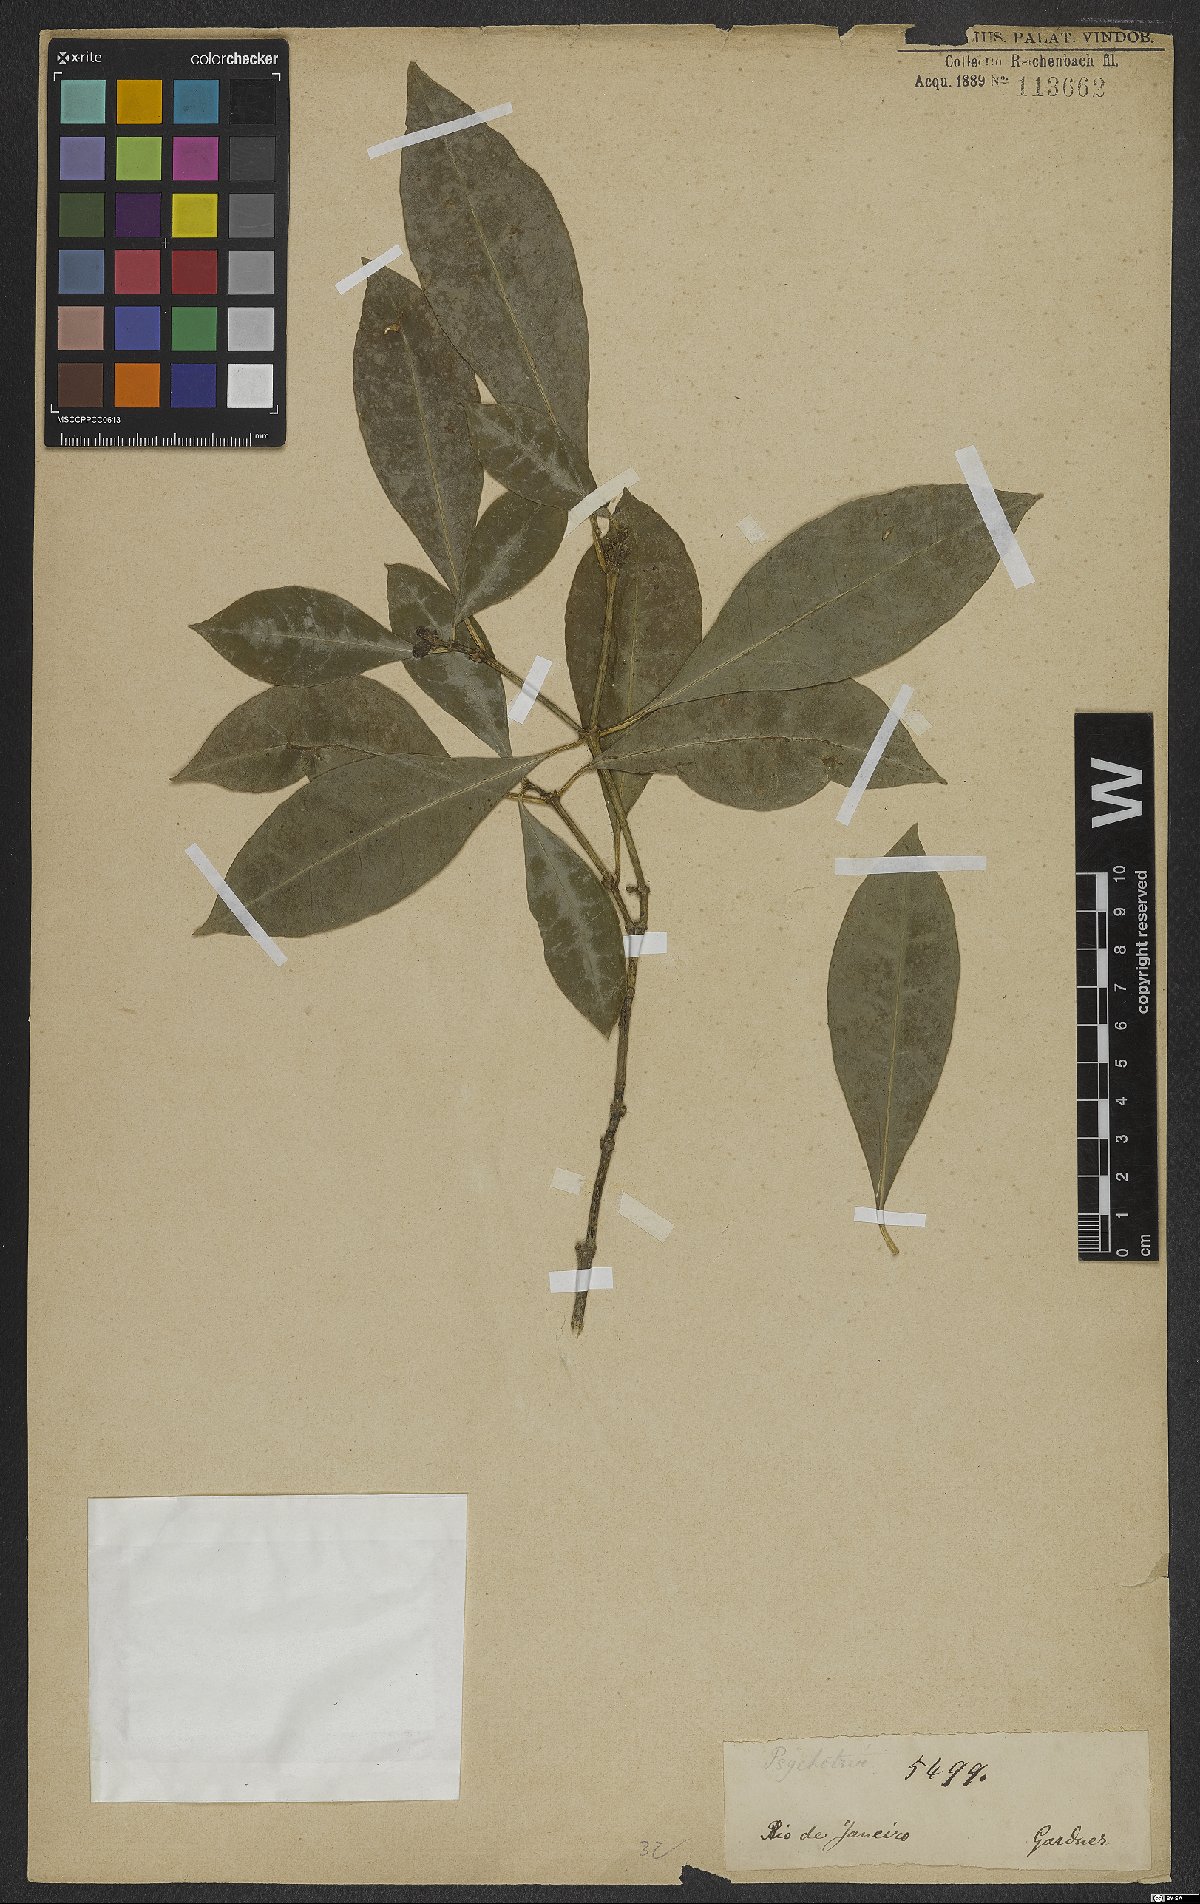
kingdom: Plantae
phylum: Tracheophyta
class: Magnoliopsida
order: Gentianales
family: Rubiaceae
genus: Eumachia
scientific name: Eumachia chaenotricha
